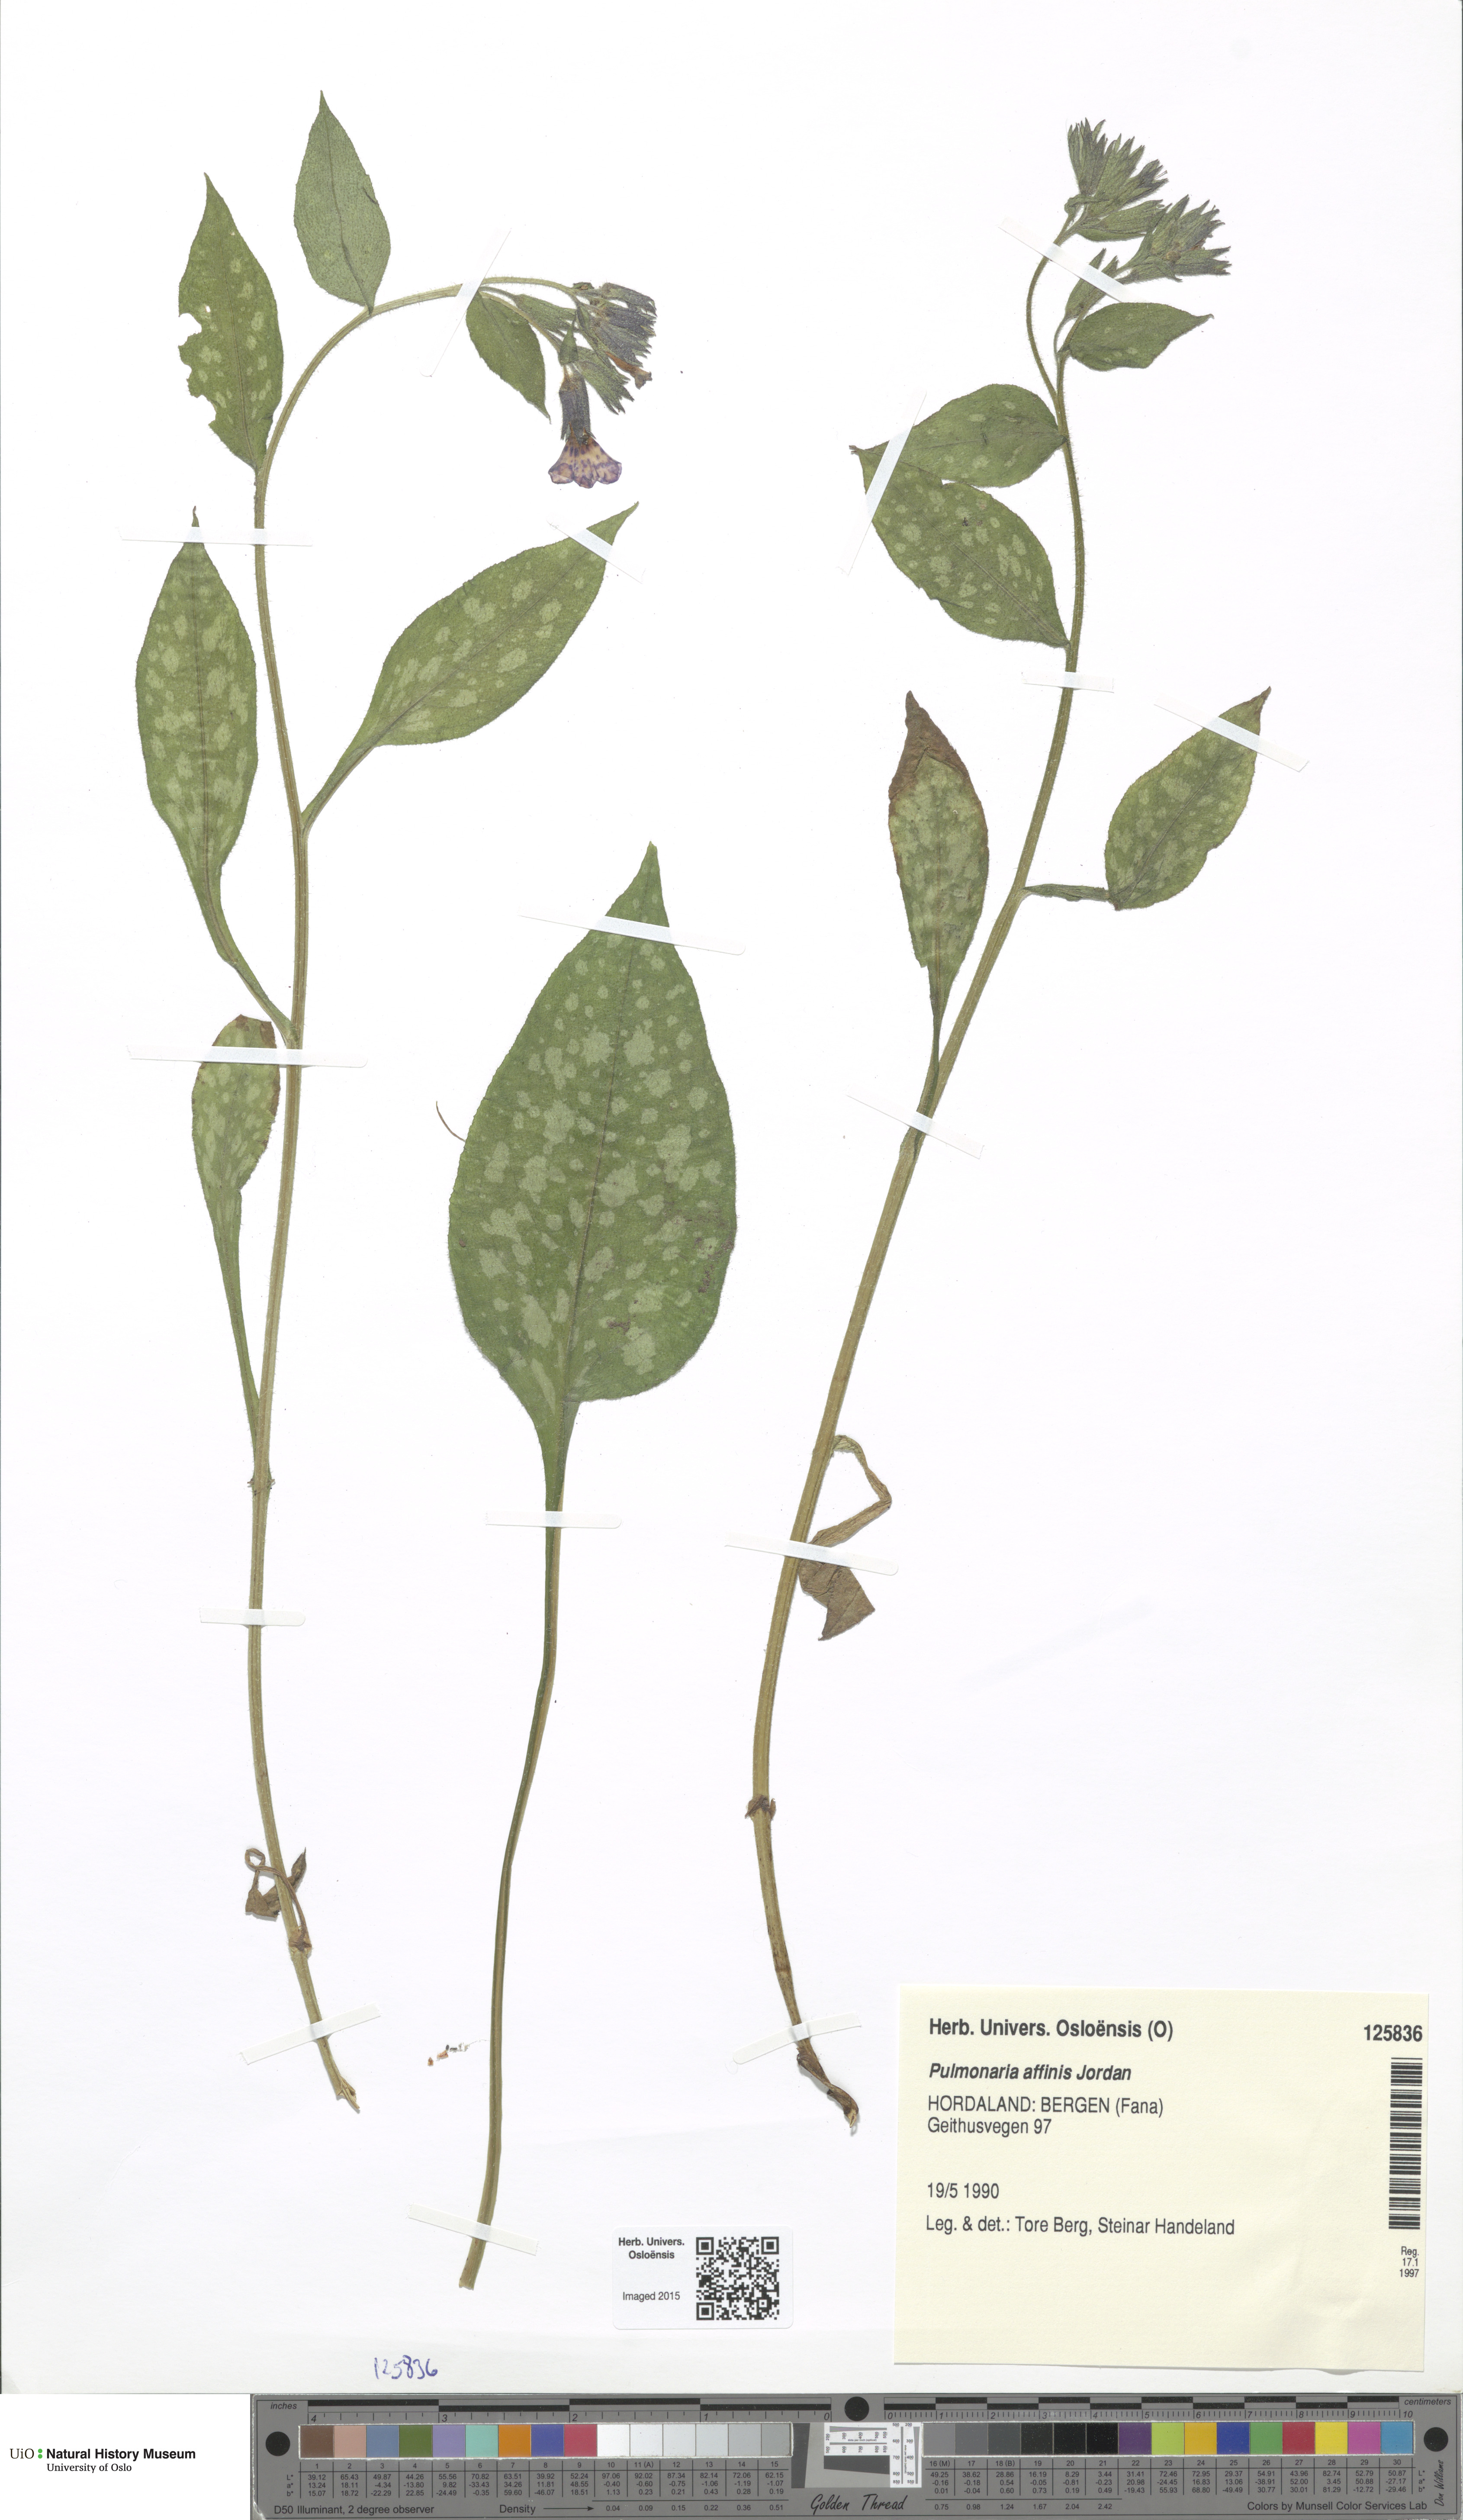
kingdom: Plantae
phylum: Tracheophyta
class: Magnoliopsida
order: Boraginales
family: Boraginaceae
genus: Pulmonaria
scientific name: Pulmonaria affinis
